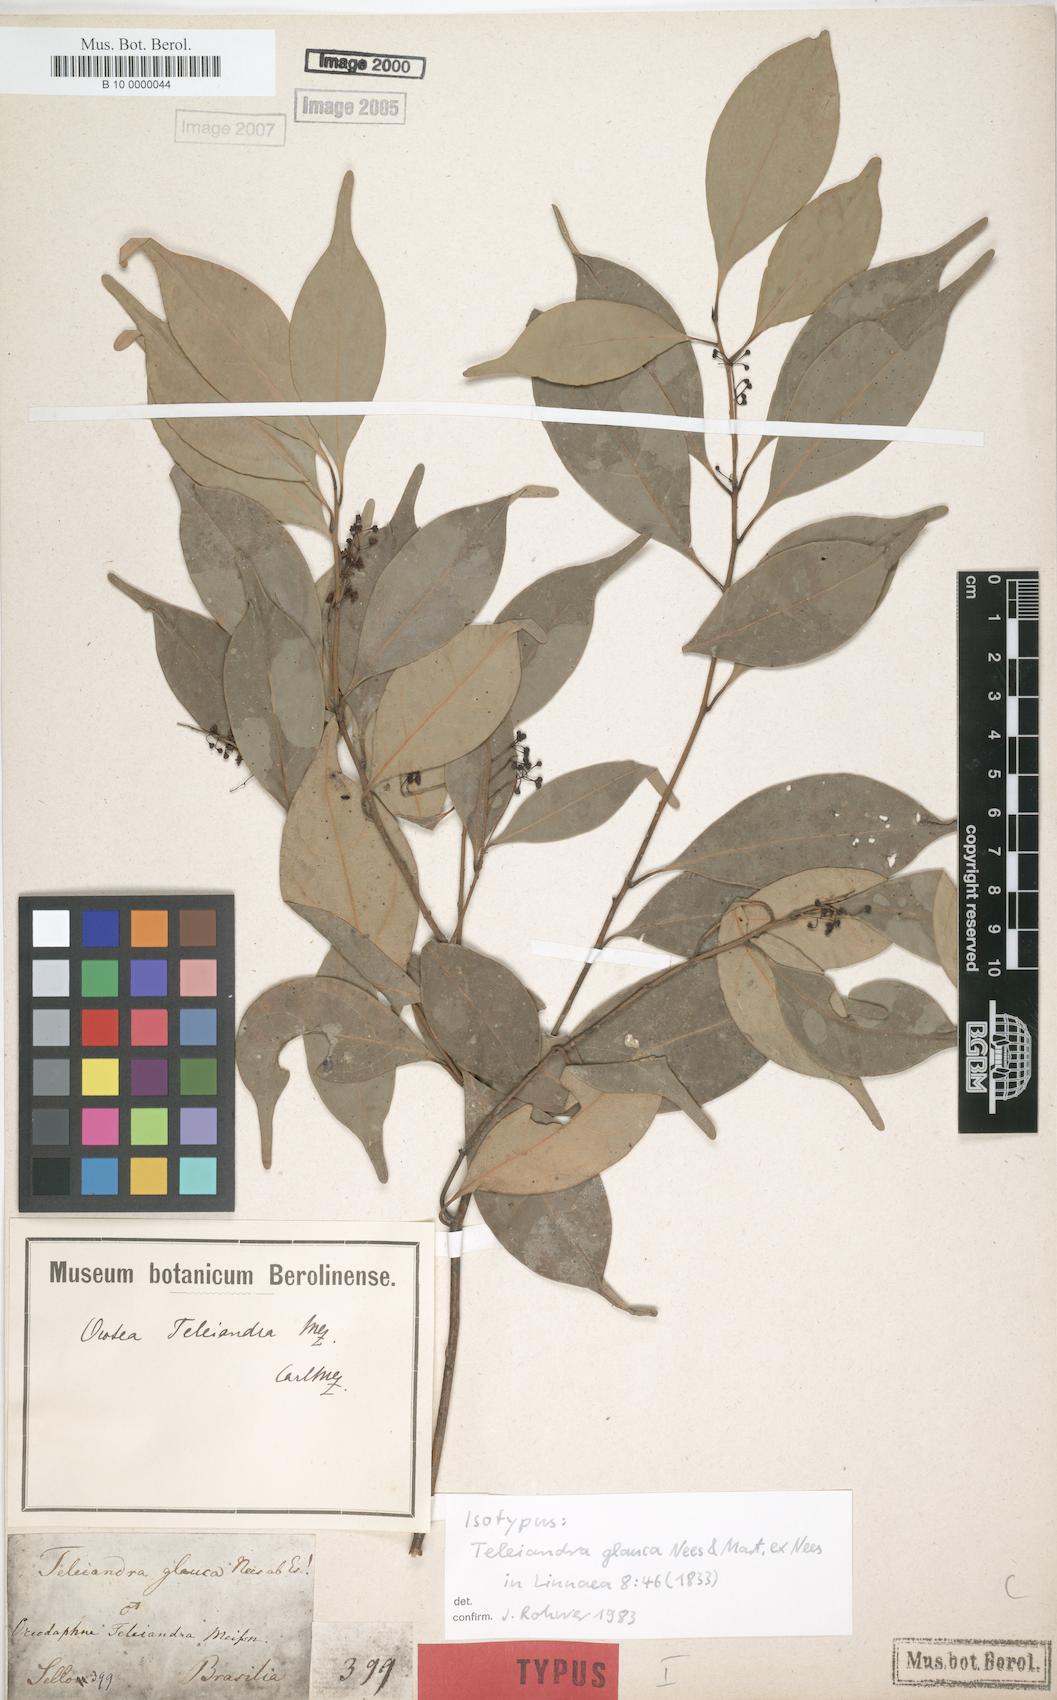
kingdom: Plantae
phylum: Tracheophyta
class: Magnoliopsida
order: Laurales
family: Lauraceae
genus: Ocotea
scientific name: Ocotea teleiandra
